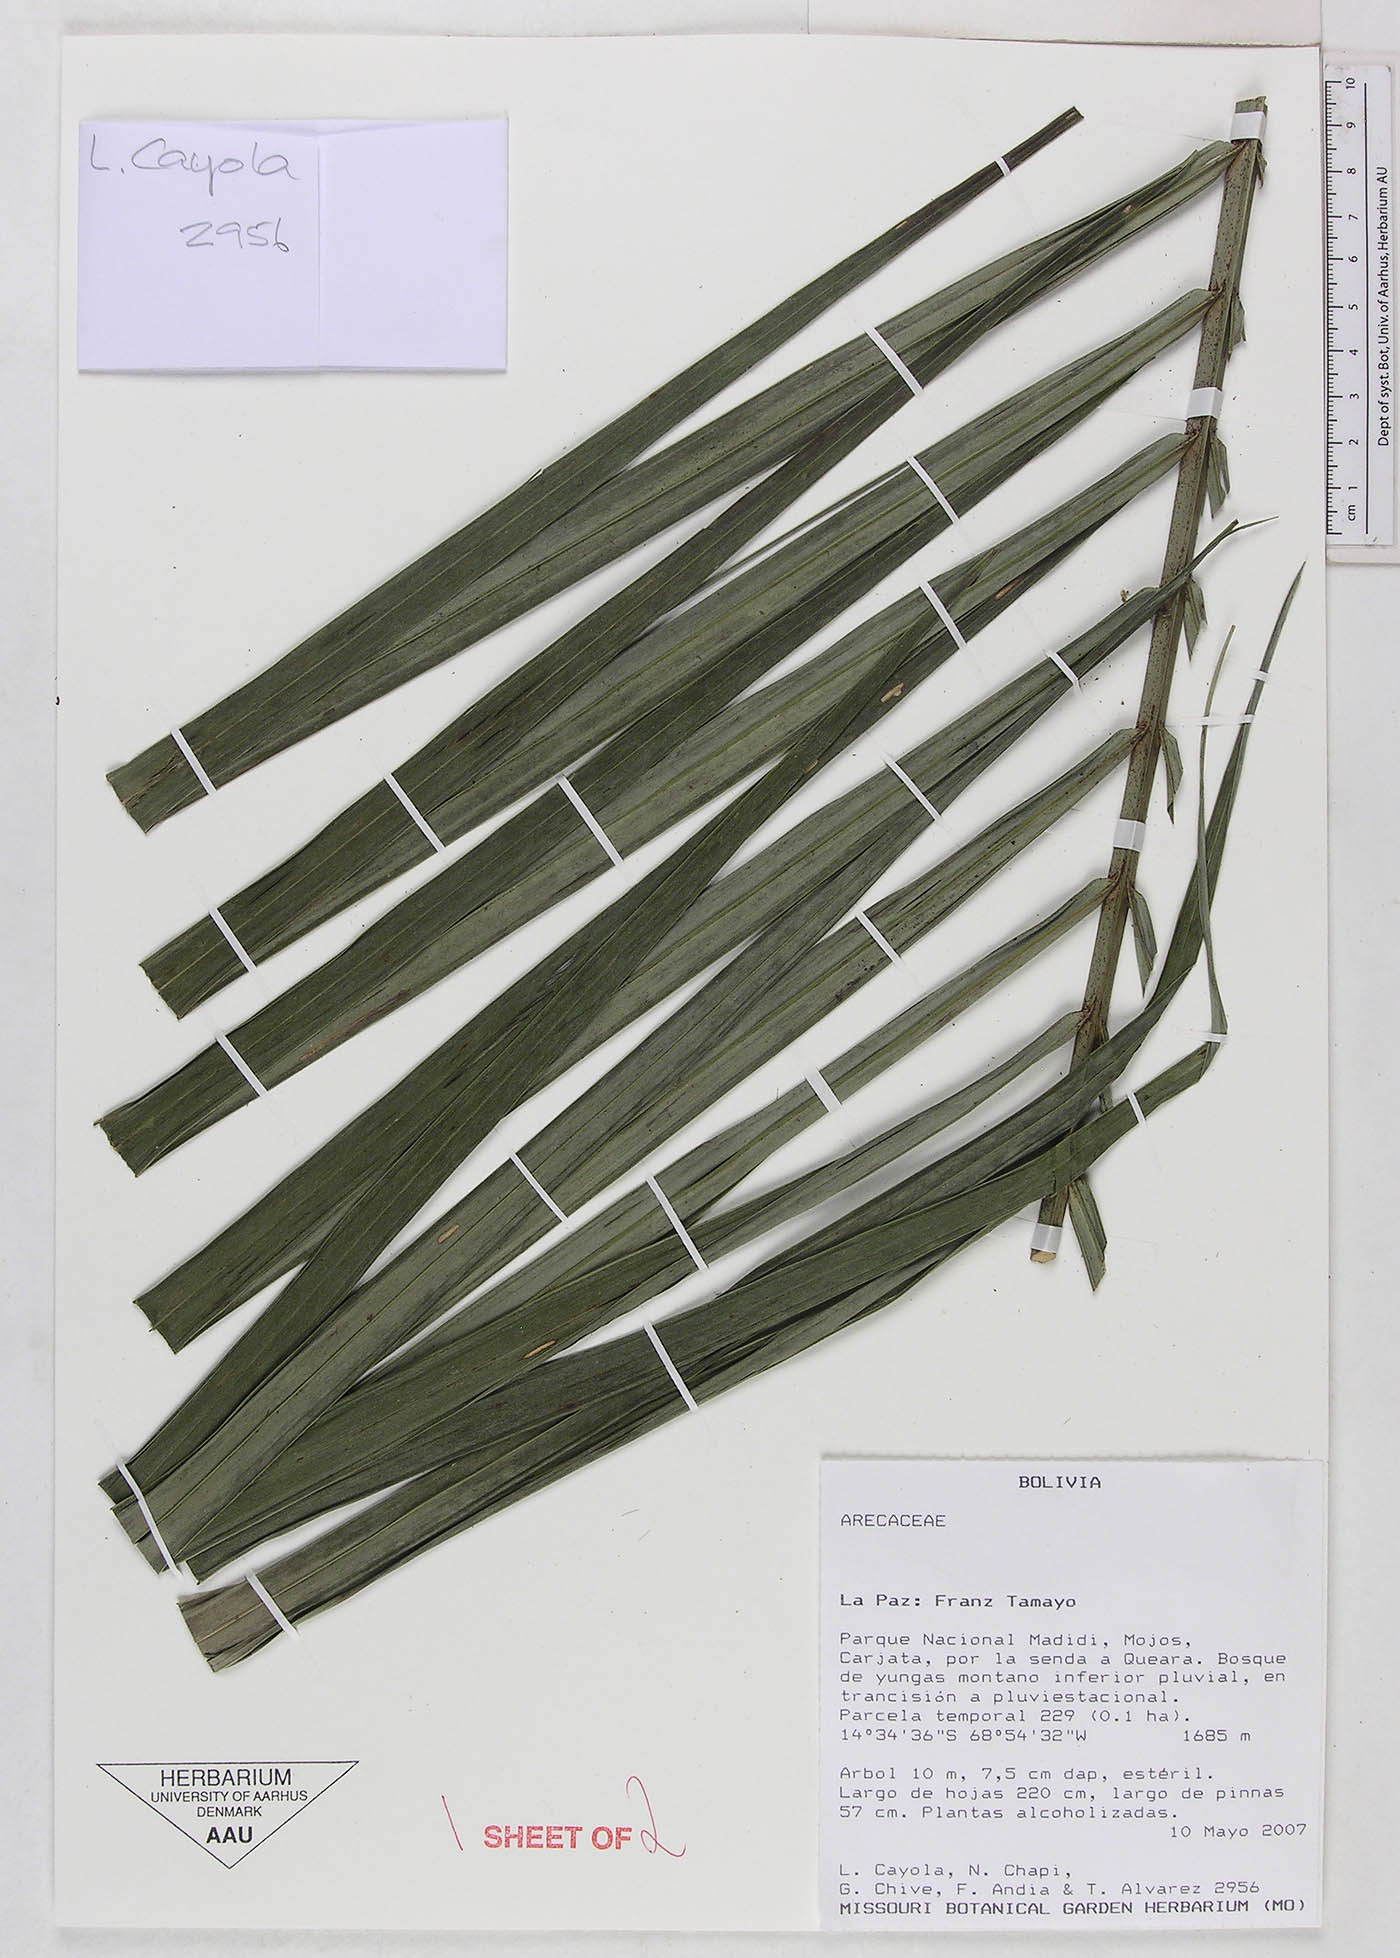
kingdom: Plantae
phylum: Tracheophyta
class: Liliopsida
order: Arecales
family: Arecaceae
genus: Prestoea
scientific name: Prestoea acuminata
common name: Sierran palm
